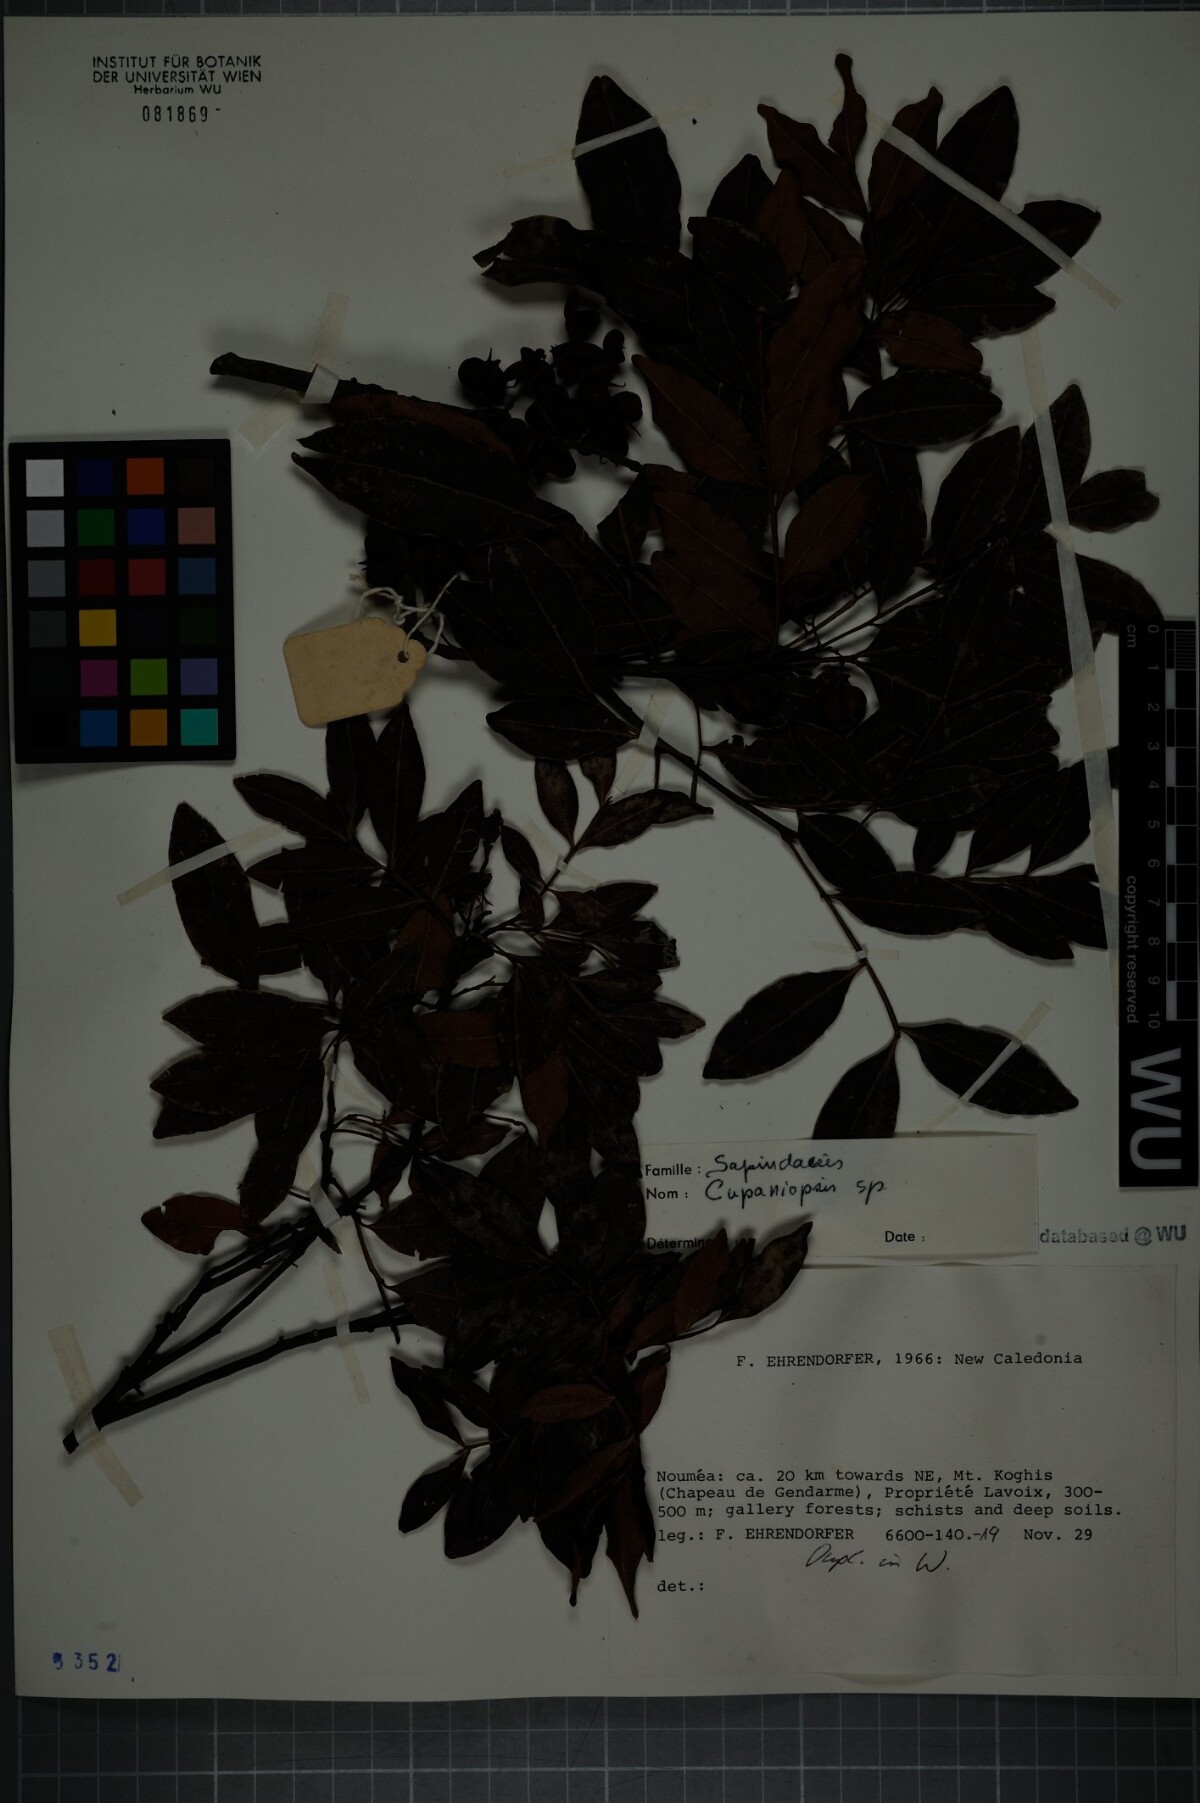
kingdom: Plantae
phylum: Tracheophyta
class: Magnoliopsida
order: Sapindales
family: Sapindaceae
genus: Cupaniopsis
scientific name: Cupaniopsis
